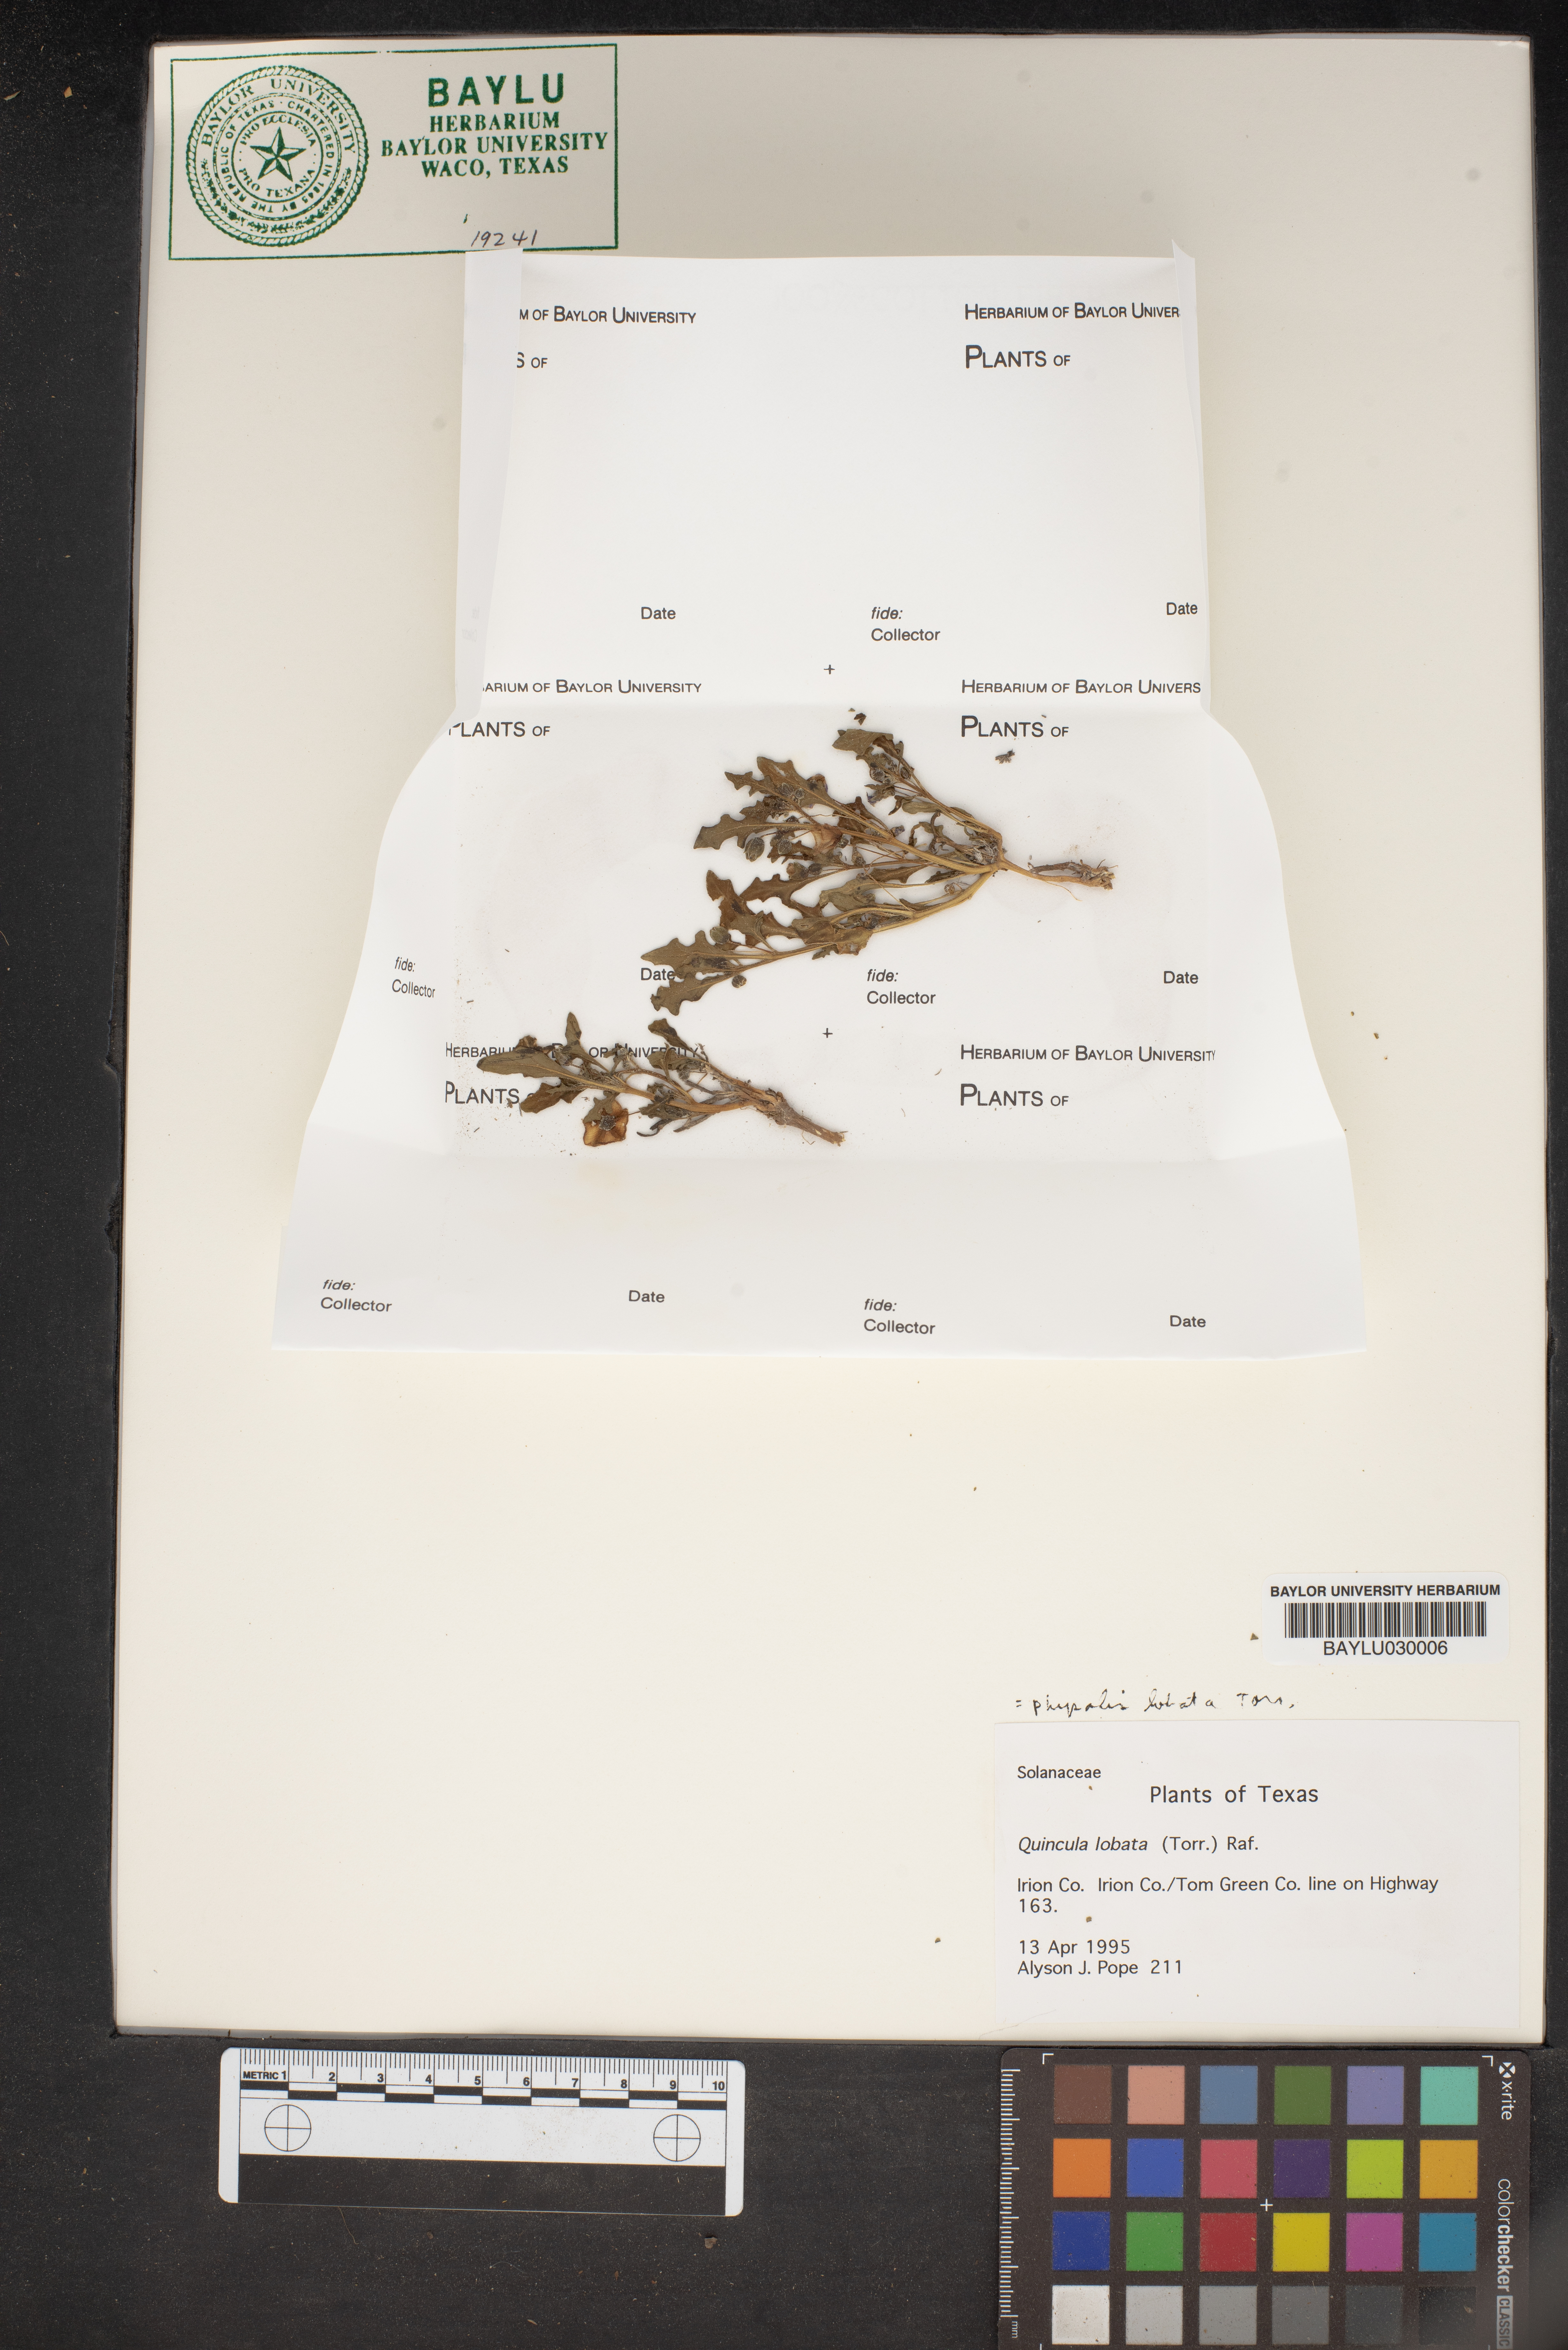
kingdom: Plantae
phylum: Tracheophyta
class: Magnoliopsida
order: Solanales
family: Solanaceae
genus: Quincula
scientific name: Quincula lobata
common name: Purple-ground-cherry
